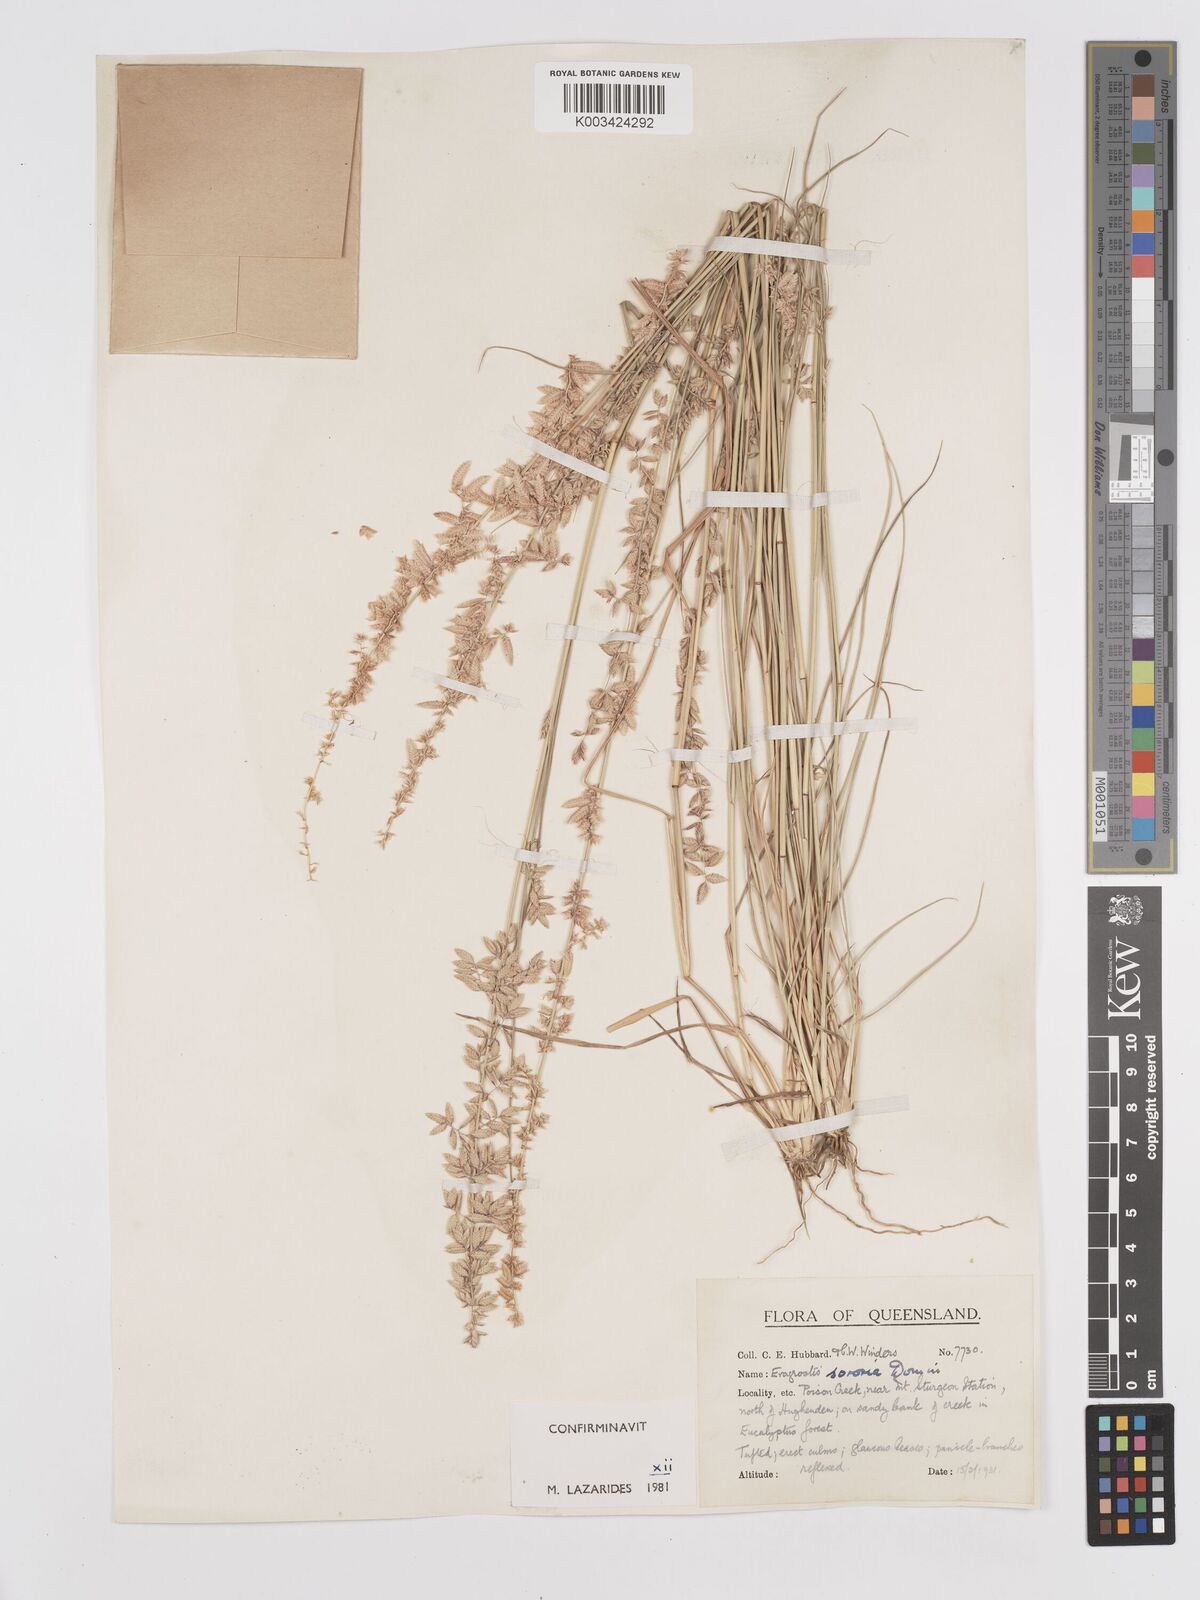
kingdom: Plantae
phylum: Tracheophyta
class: Liliopsida
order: Poales
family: Poaceae
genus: Eragrostis
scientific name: Eragrostis sororia
